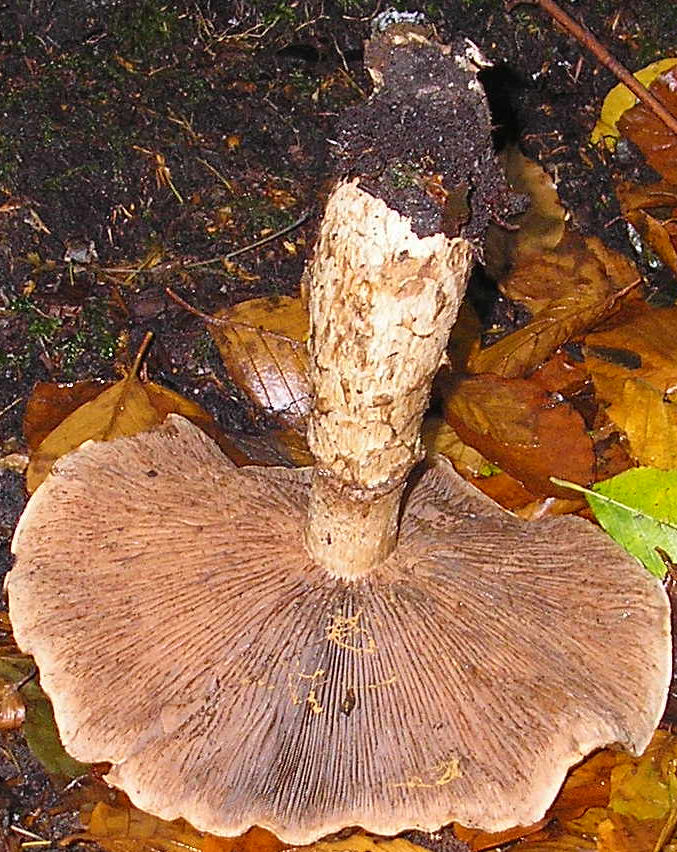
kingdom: Fungi
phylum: Basidiomycota
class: Agaricomycetes
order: Agaricales
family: Hymenogastraceae
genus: Hebeloma
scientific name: Hebeloma radicosum
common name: pælerods-tåreblad
